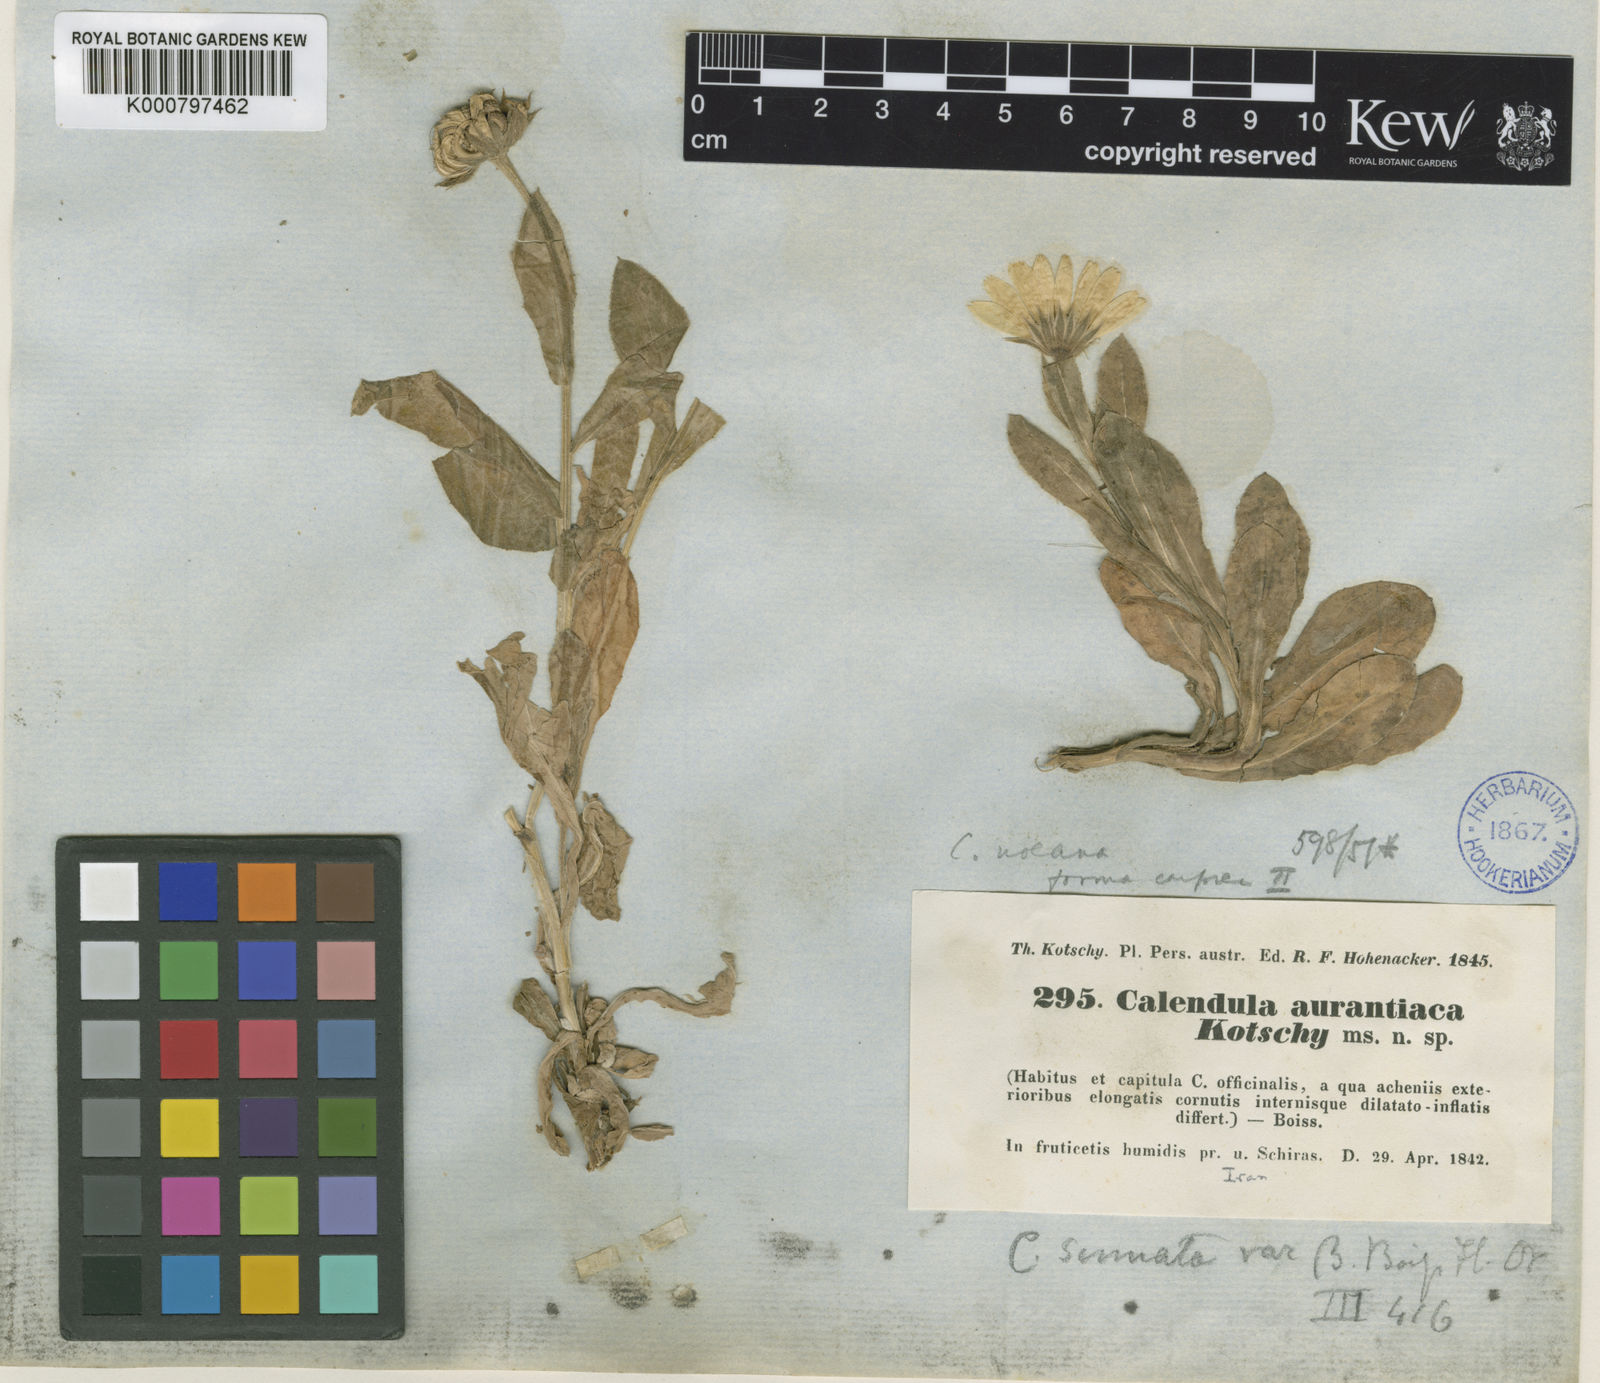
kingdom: Plantae
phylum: Tracheophyta
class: Magnoliopsida
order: Asterales
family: Asteraceae
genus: Calendula
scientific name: Calendula officinalis
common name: Pot marigold
